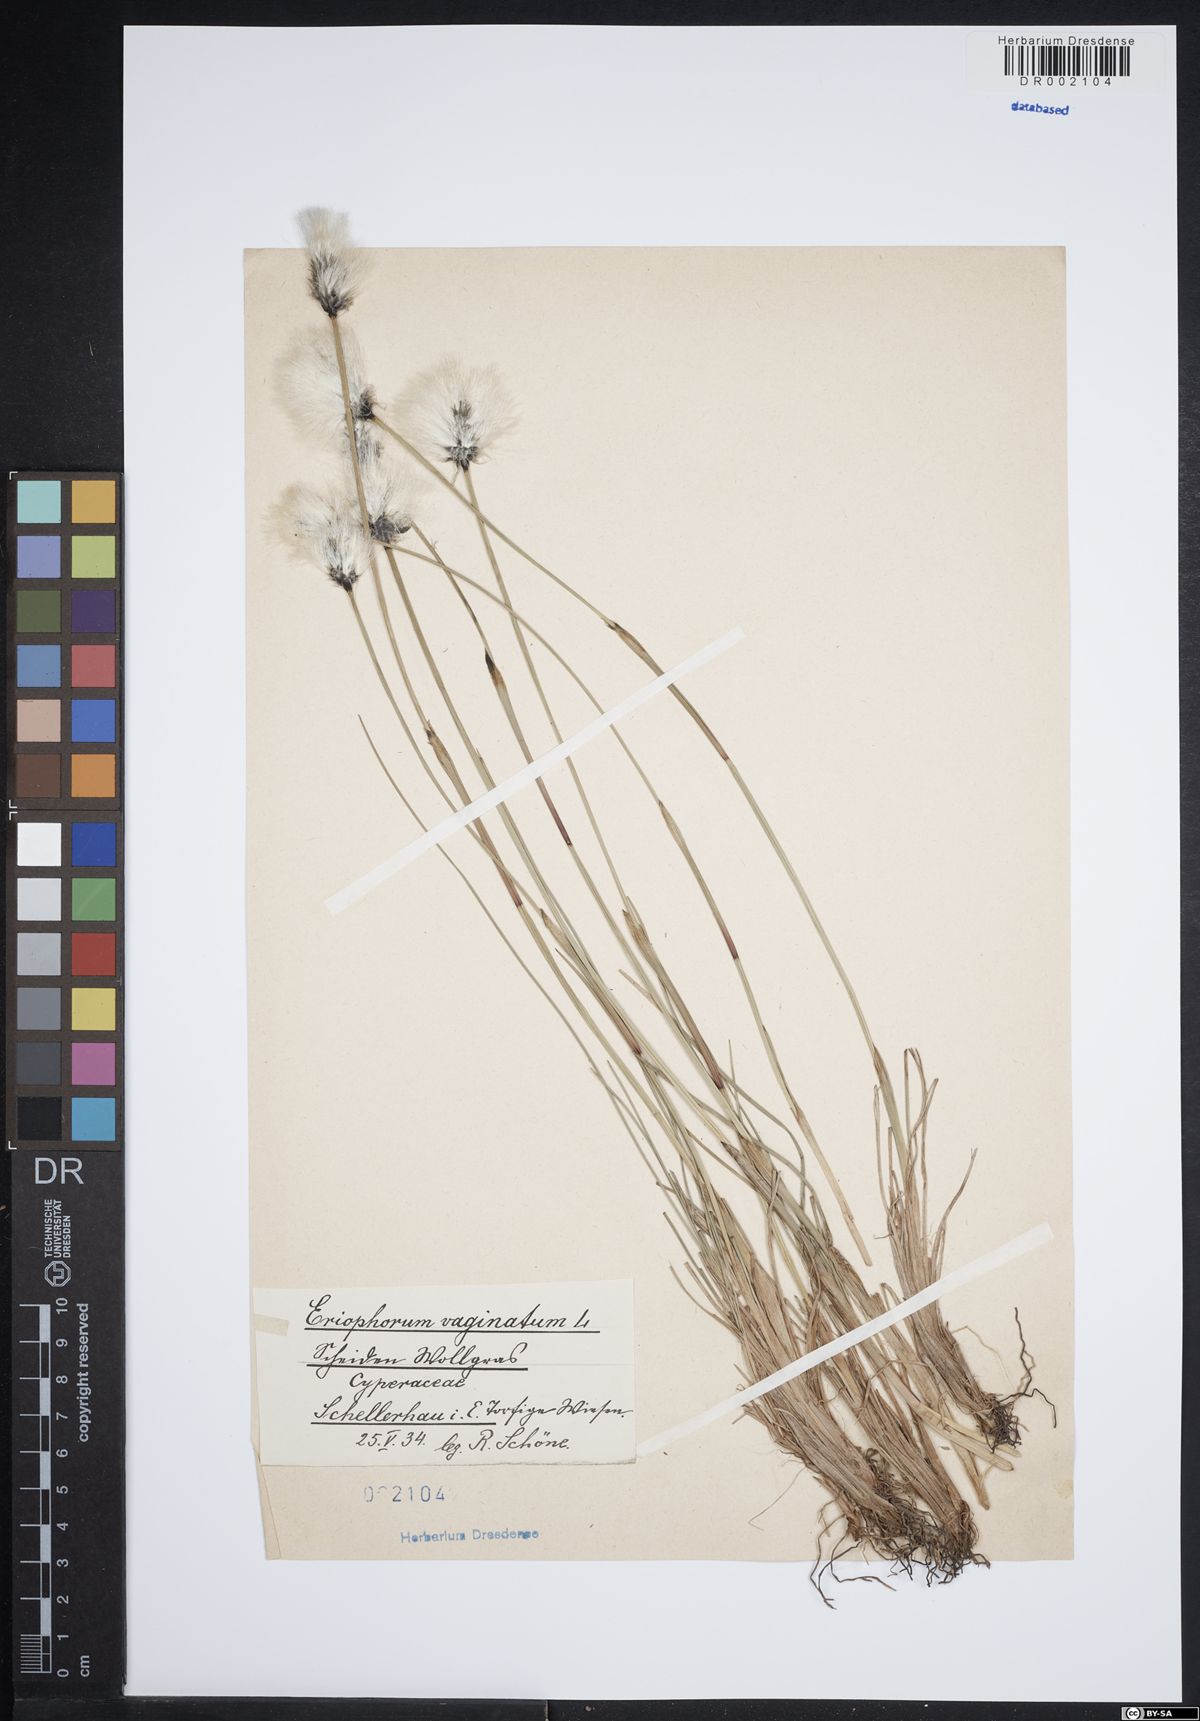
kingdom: Plantae
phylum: Tracheophyta
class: Liliopsida
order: Poales
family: Cyperaceae
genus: Eriophorum
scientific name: Eriophorum vaginatum
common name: Hare's-tail cottongrass
